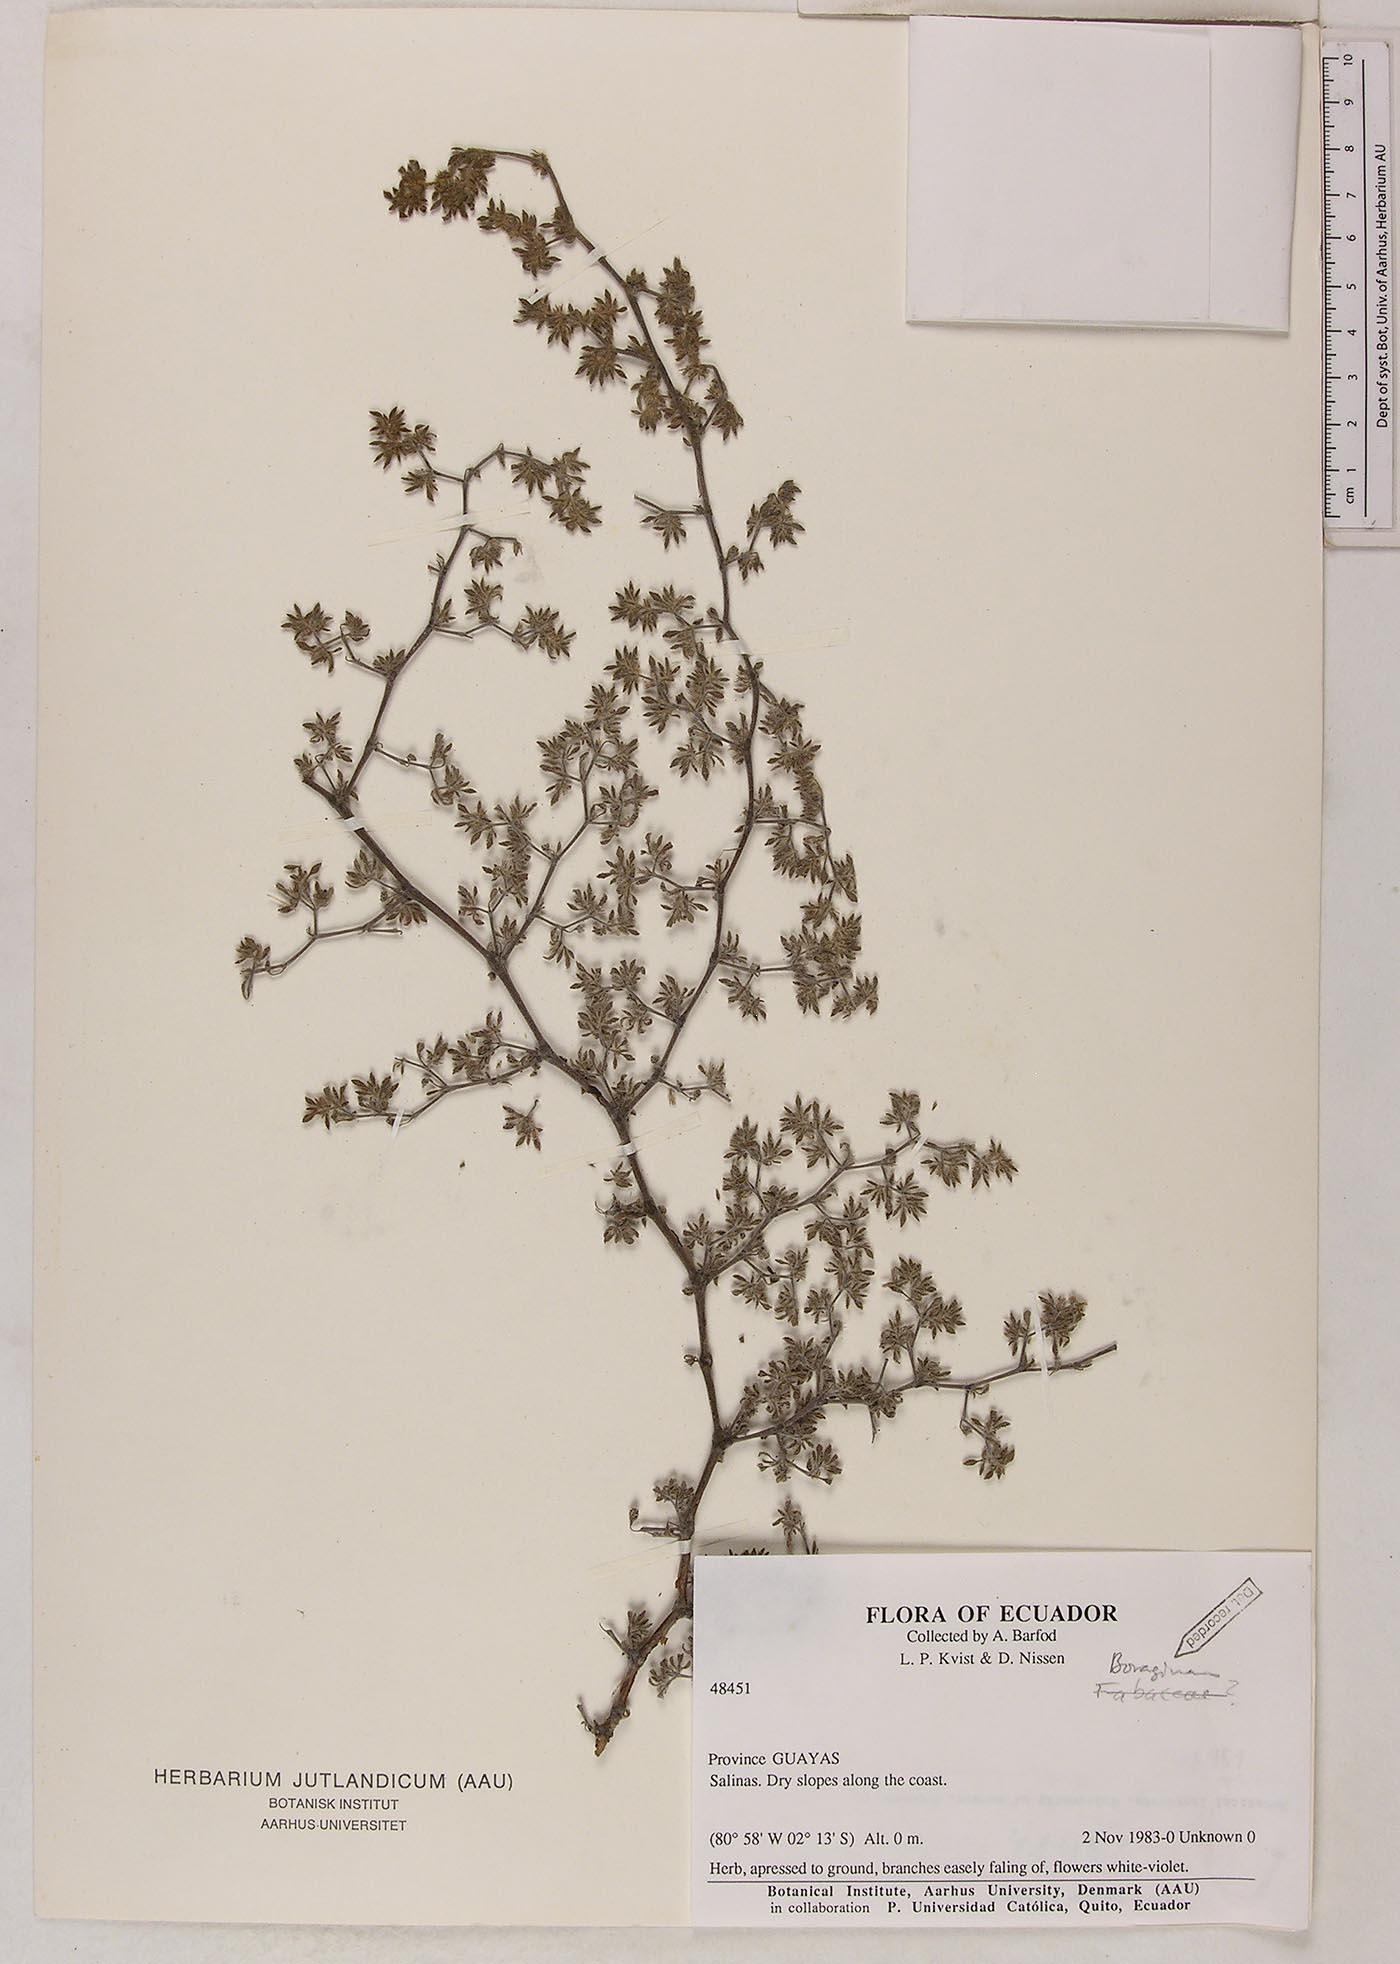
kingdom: Plantae
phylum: Tracheophyta
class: Magnoliopsida
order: Boraginales
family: Ehretiaceae
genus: Tiquilia
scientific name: Tiquilia paronychioides
